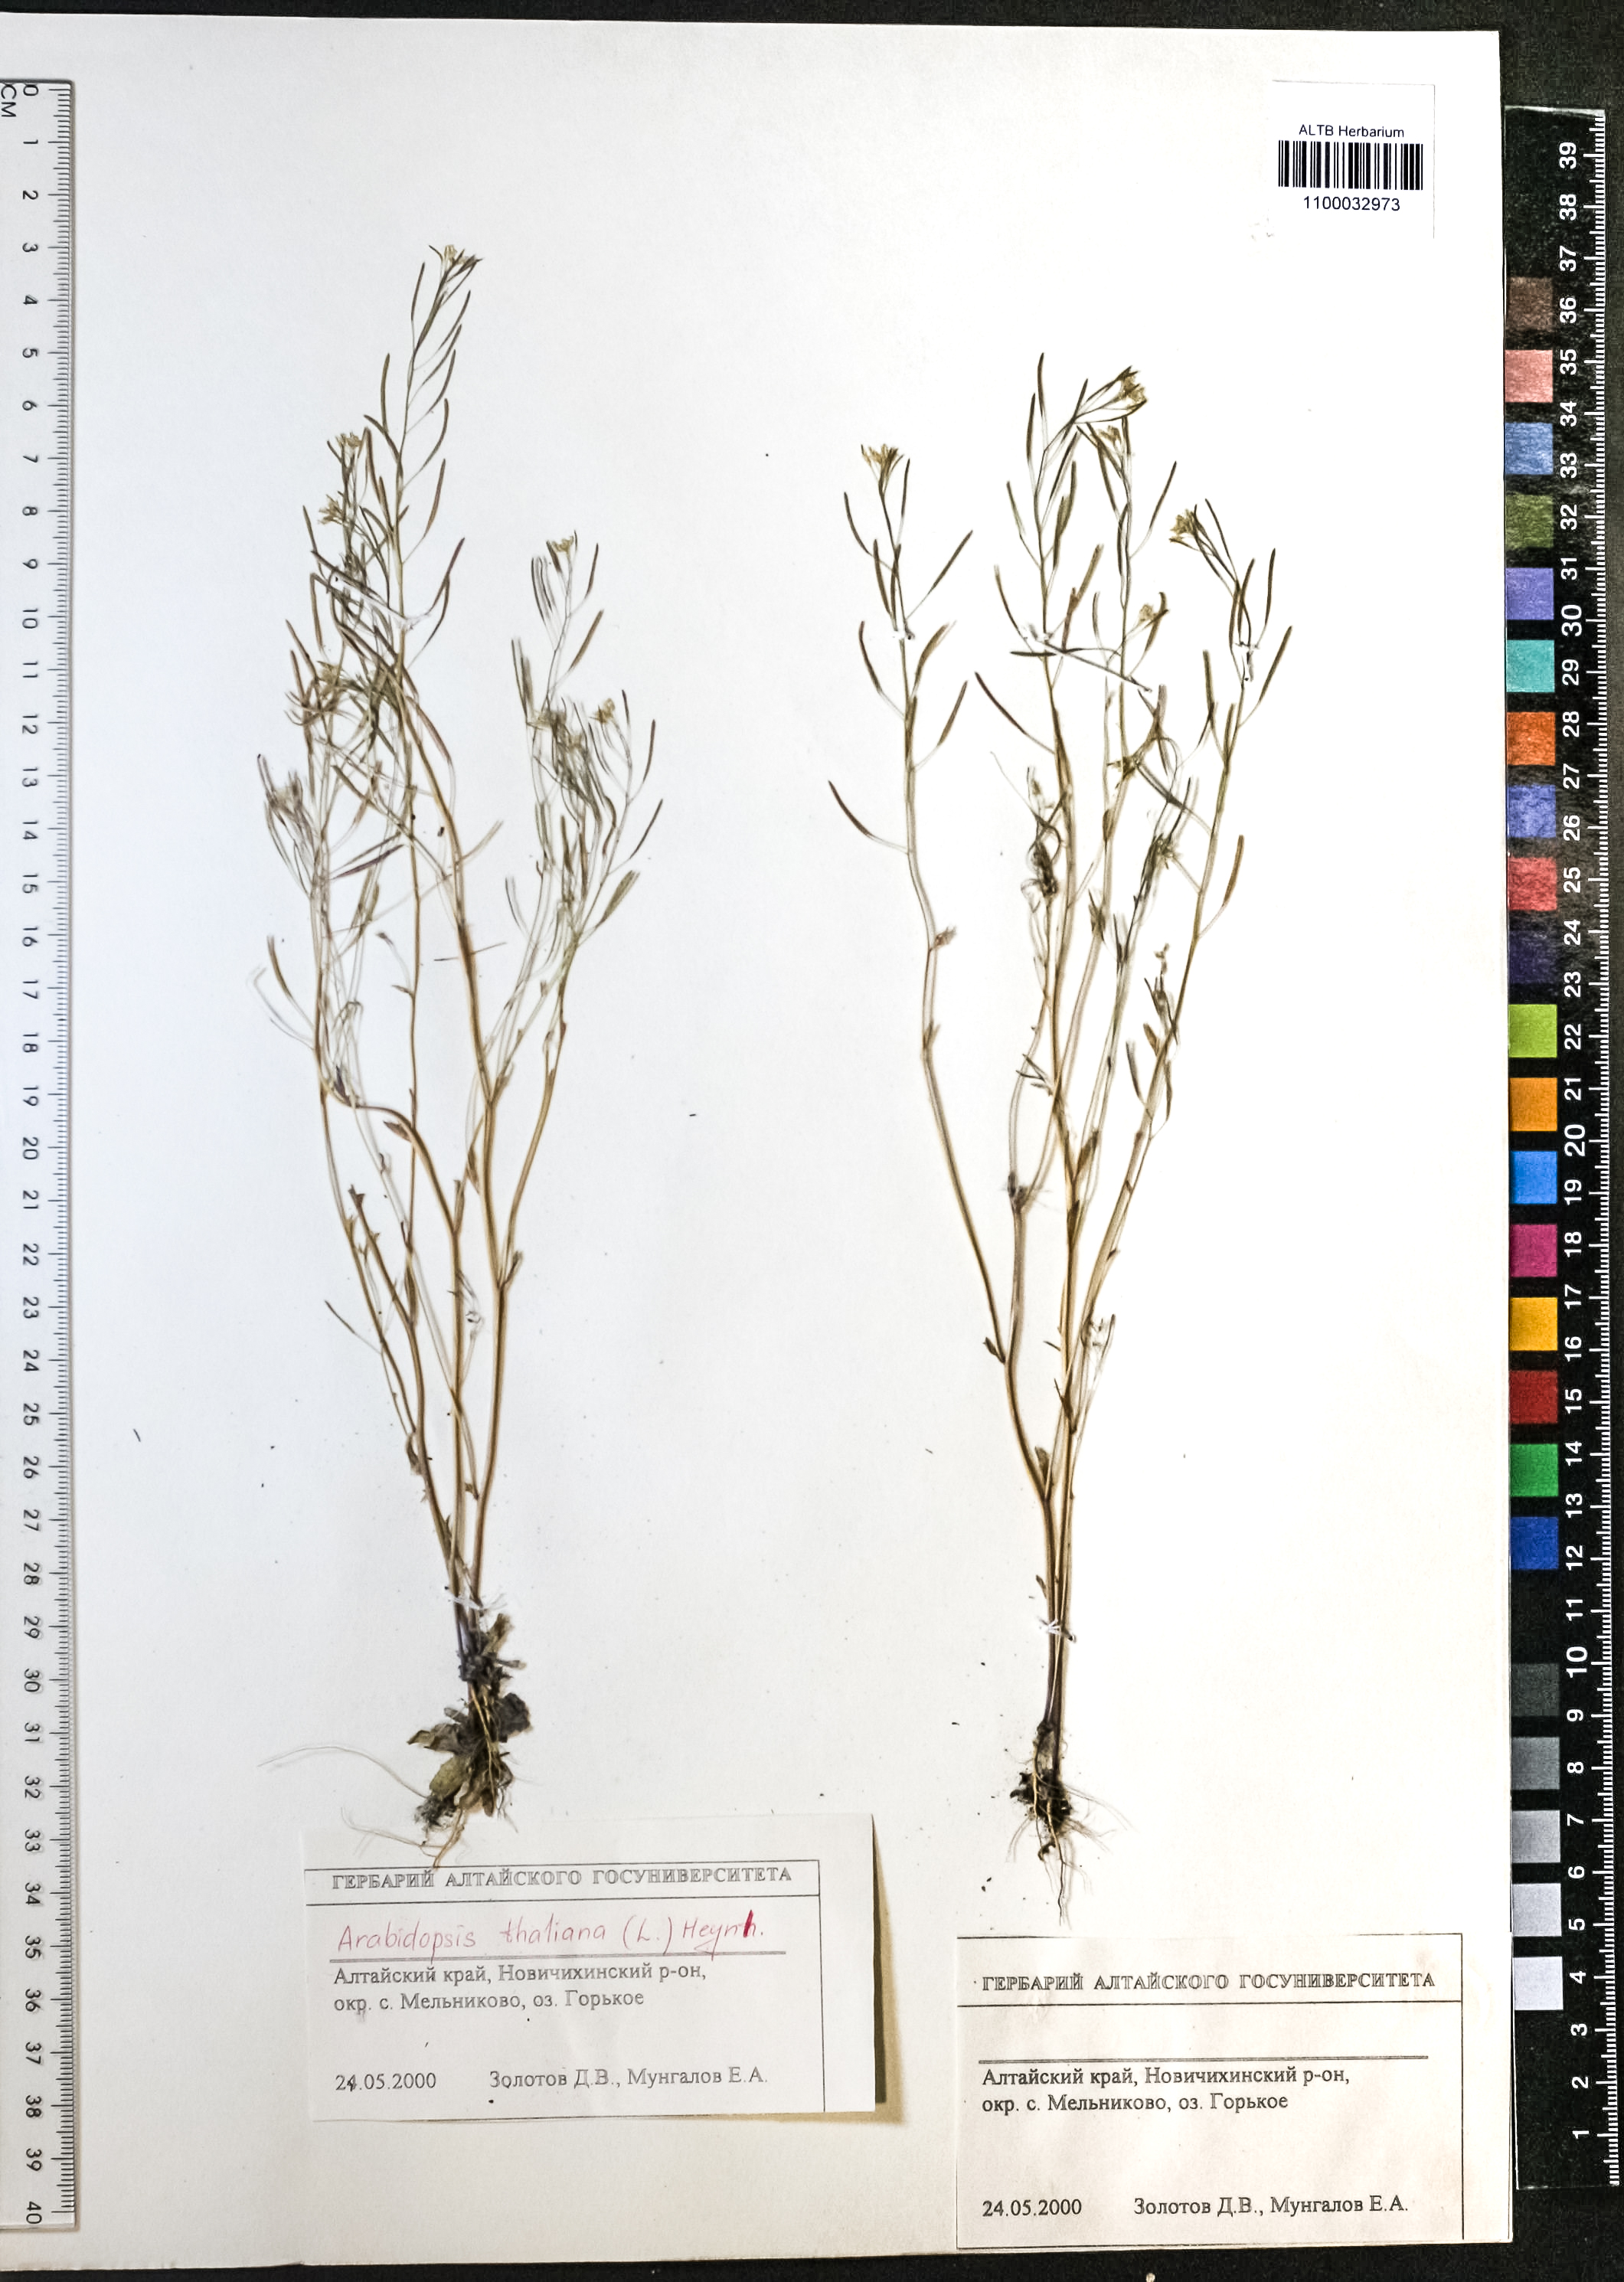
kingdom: Plantae
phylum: Tracheophyta
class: Magnoliopsida
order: Brassicales
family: Brassicaceae
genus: Arabidopsis
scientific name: Arabidopsis thaliana
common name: Thale cress
